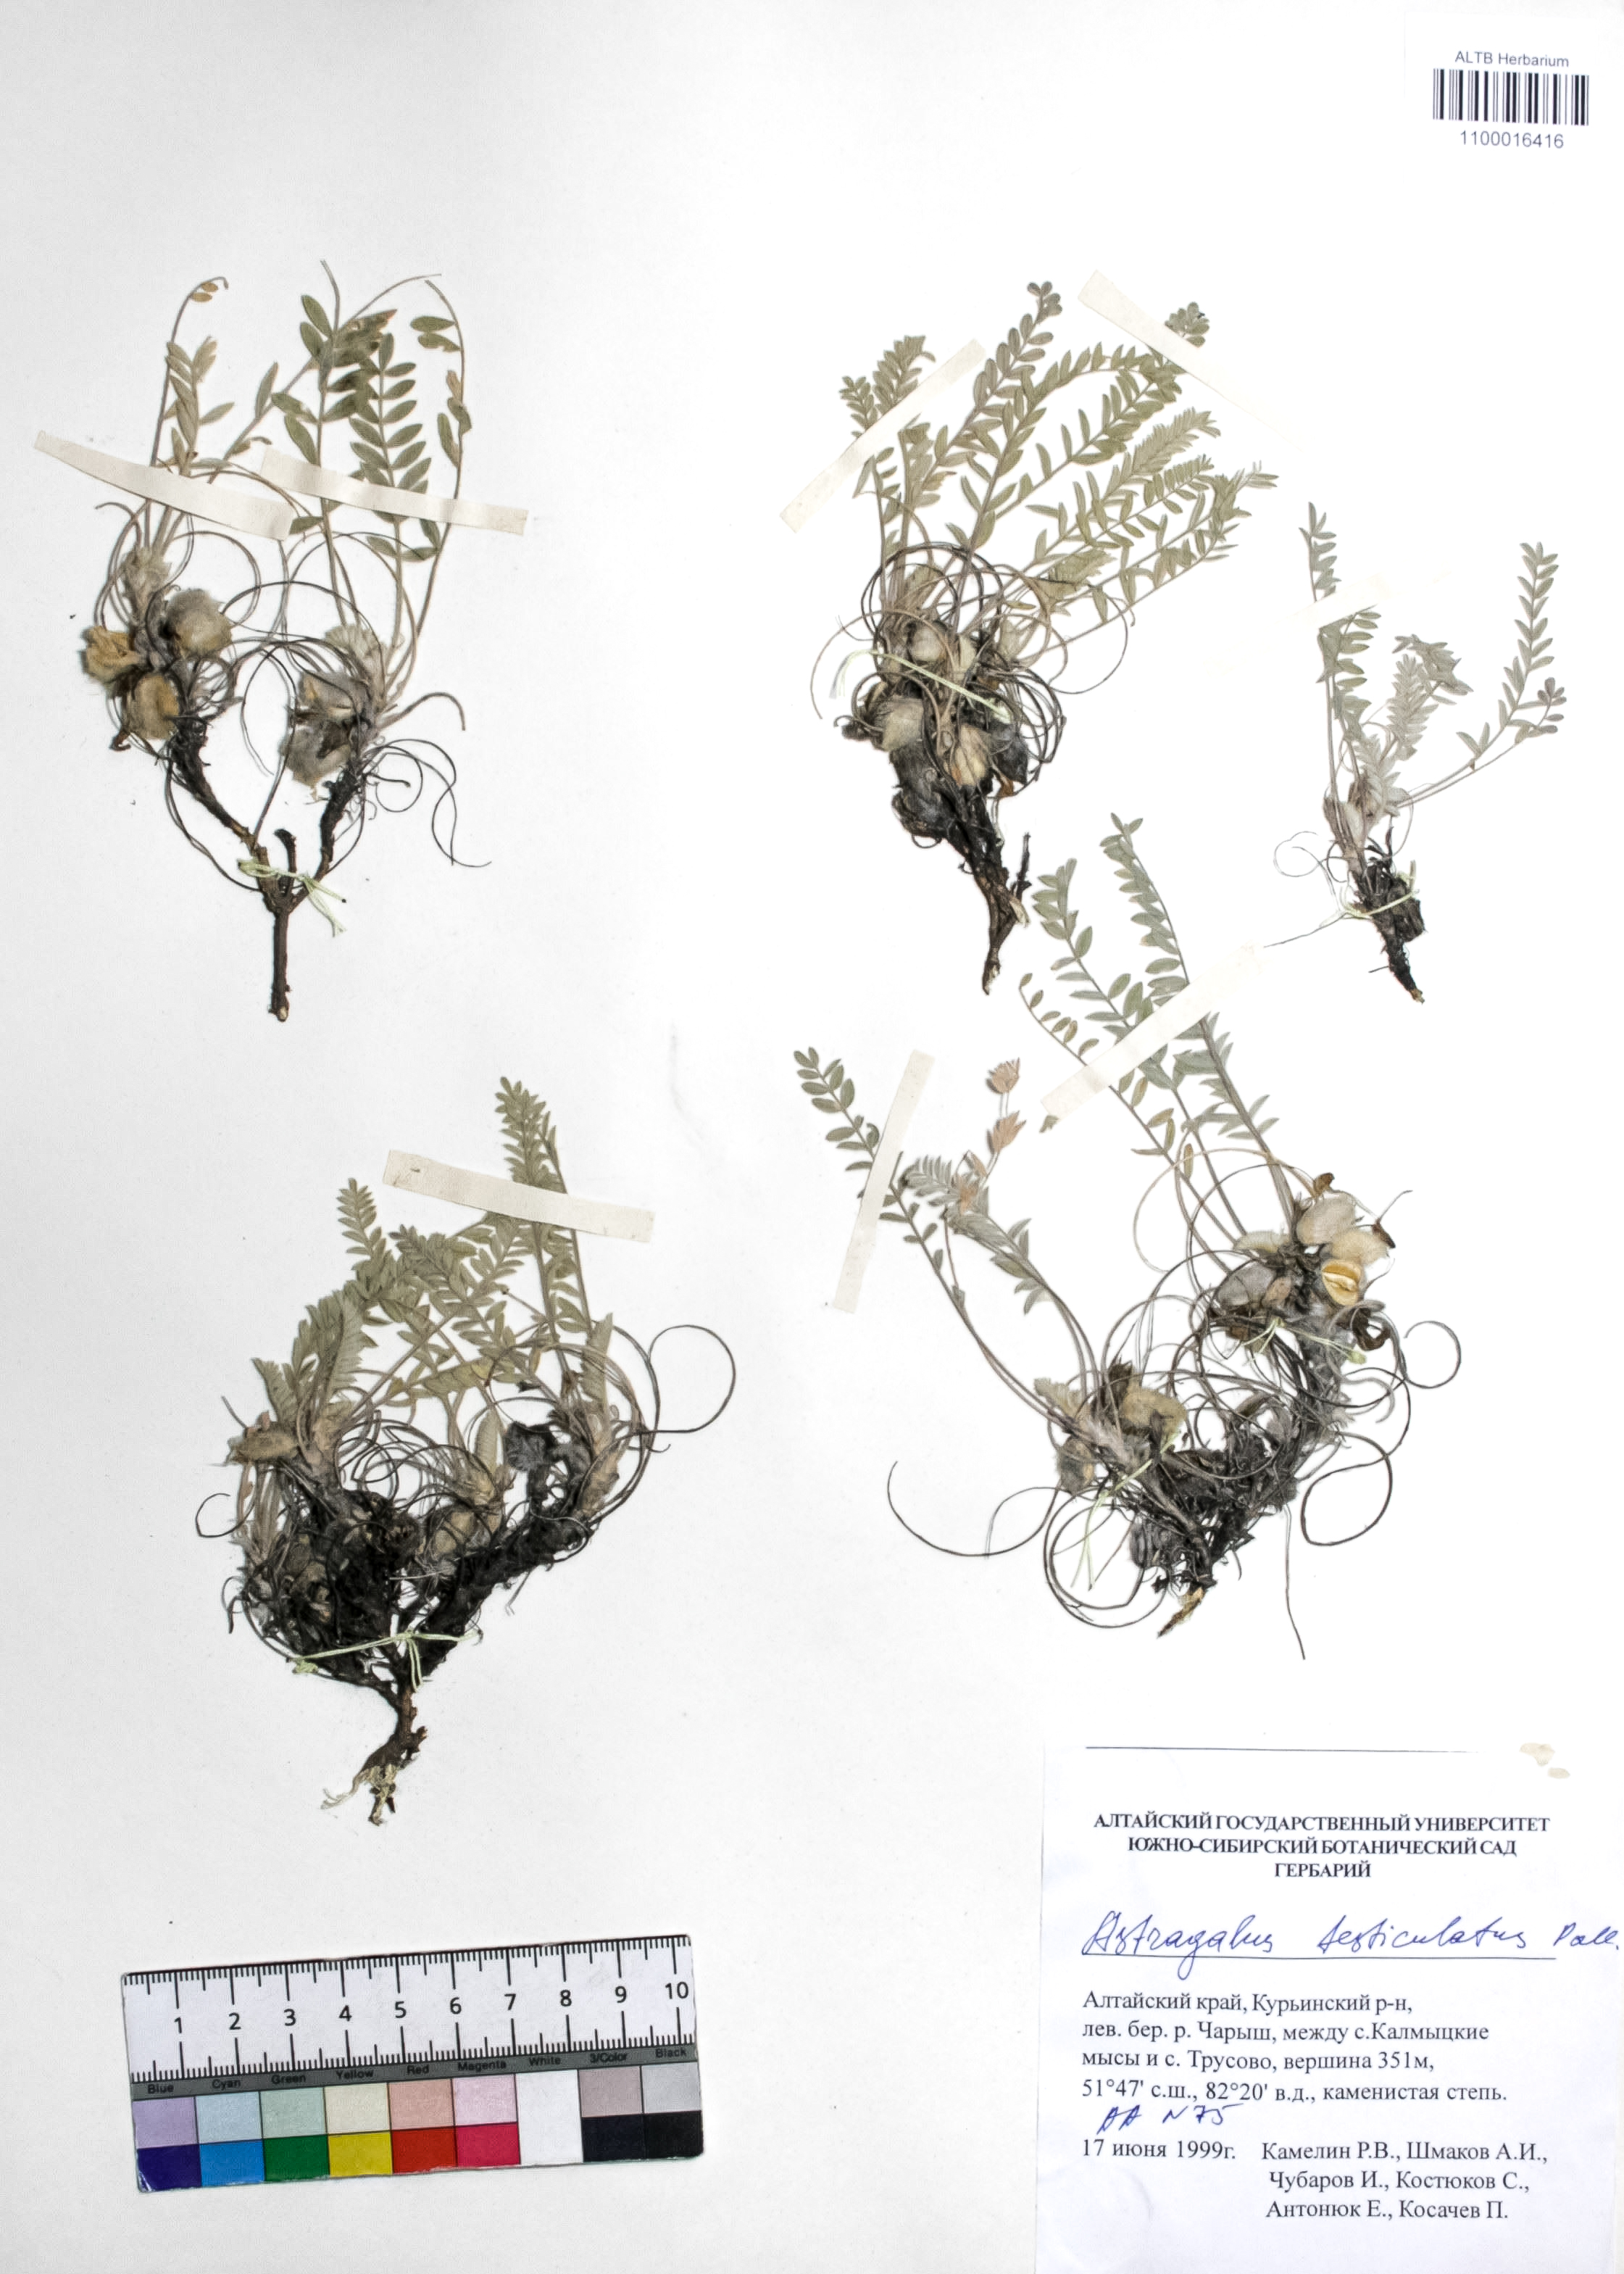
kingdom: Plantae
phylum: Tracheophyta
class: Magnoliopsida
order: Fabales
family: Fabaceae
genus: Astragalus
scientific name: Astragalus testiculatus
